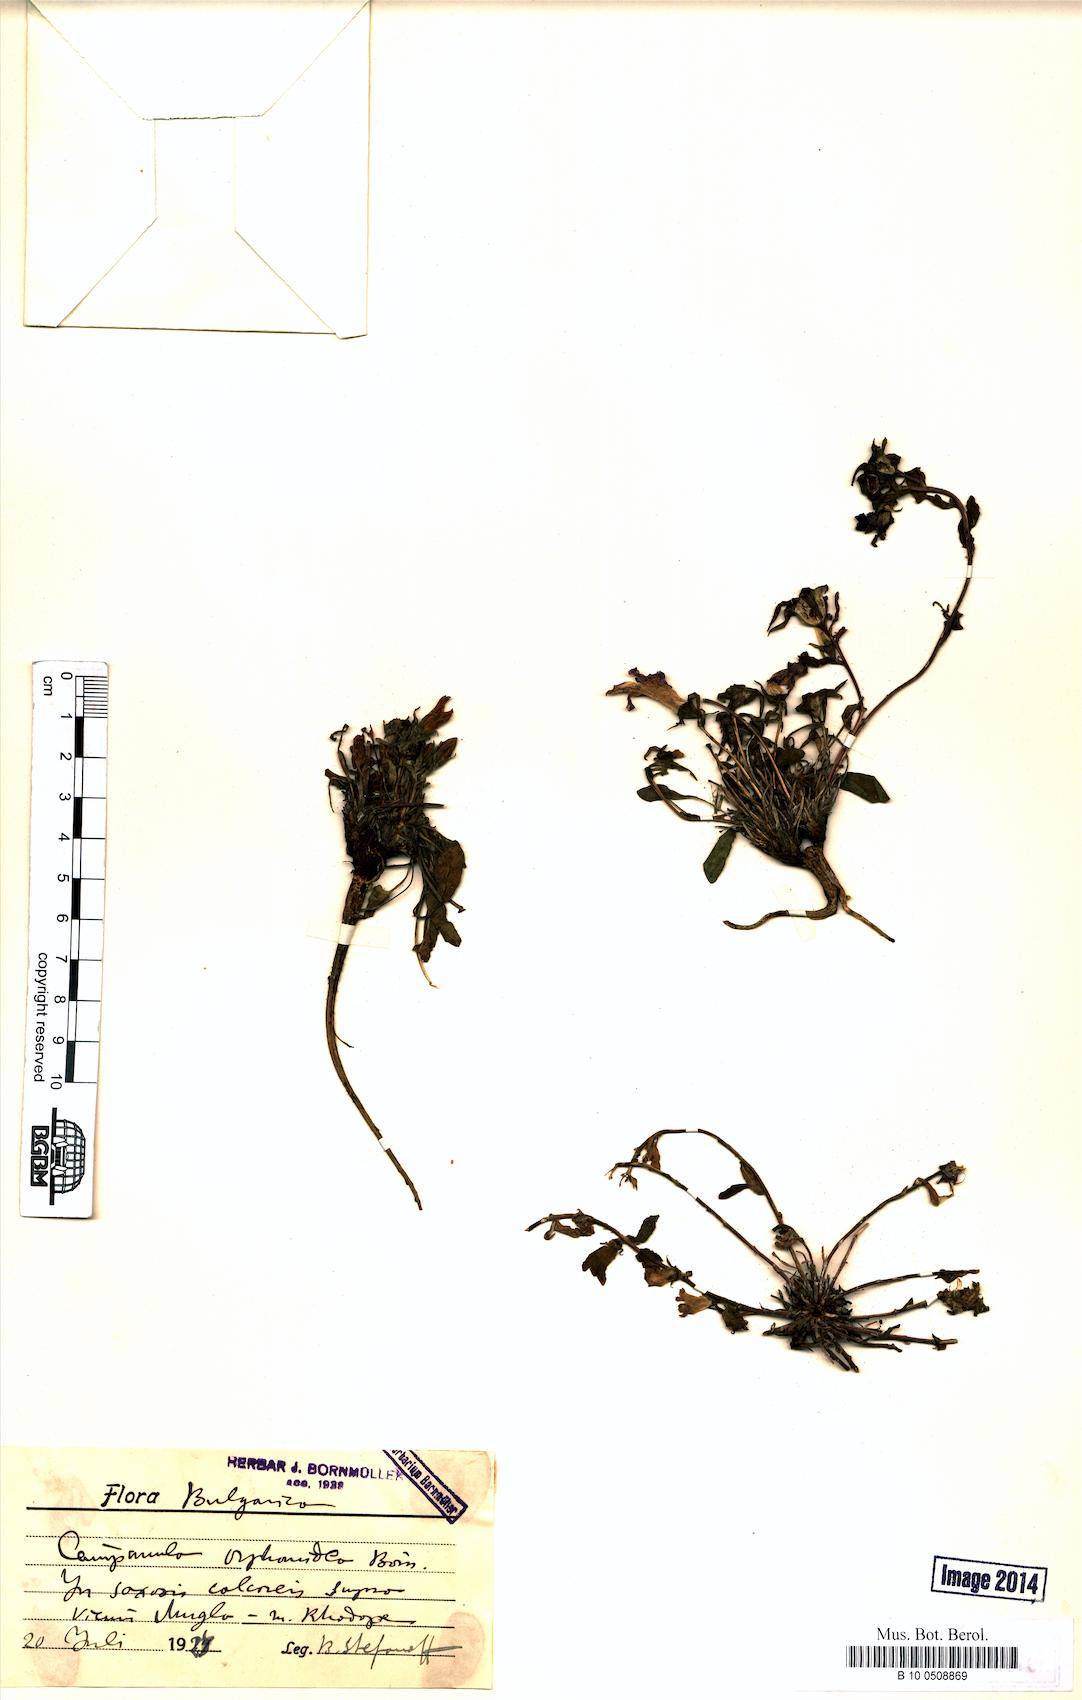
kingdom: Plantae
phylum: Tracheophyta
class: Magnoliopsida
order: Asterales
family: Campanulaceae
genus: Campanula
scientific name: Campanula orphanidea
